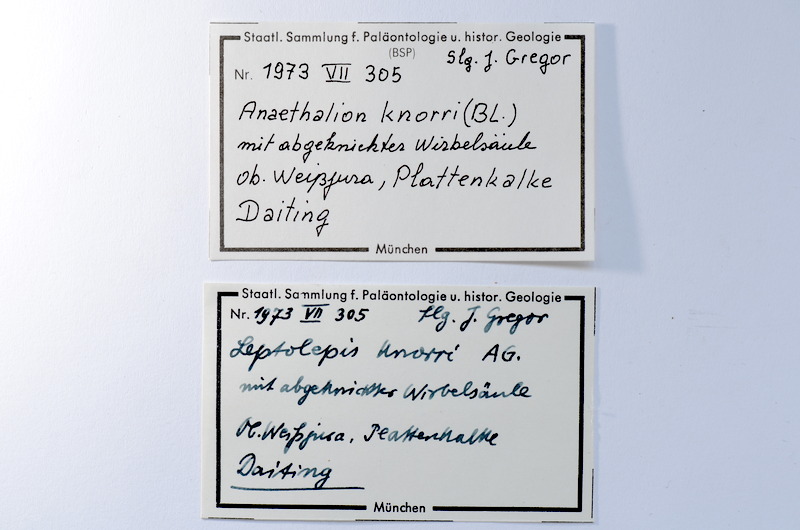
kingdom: Animalia
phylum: Chordata
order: Elopiformes
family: Anaethalionidae
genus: Anaethalion
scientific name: Anaethalion knorri
